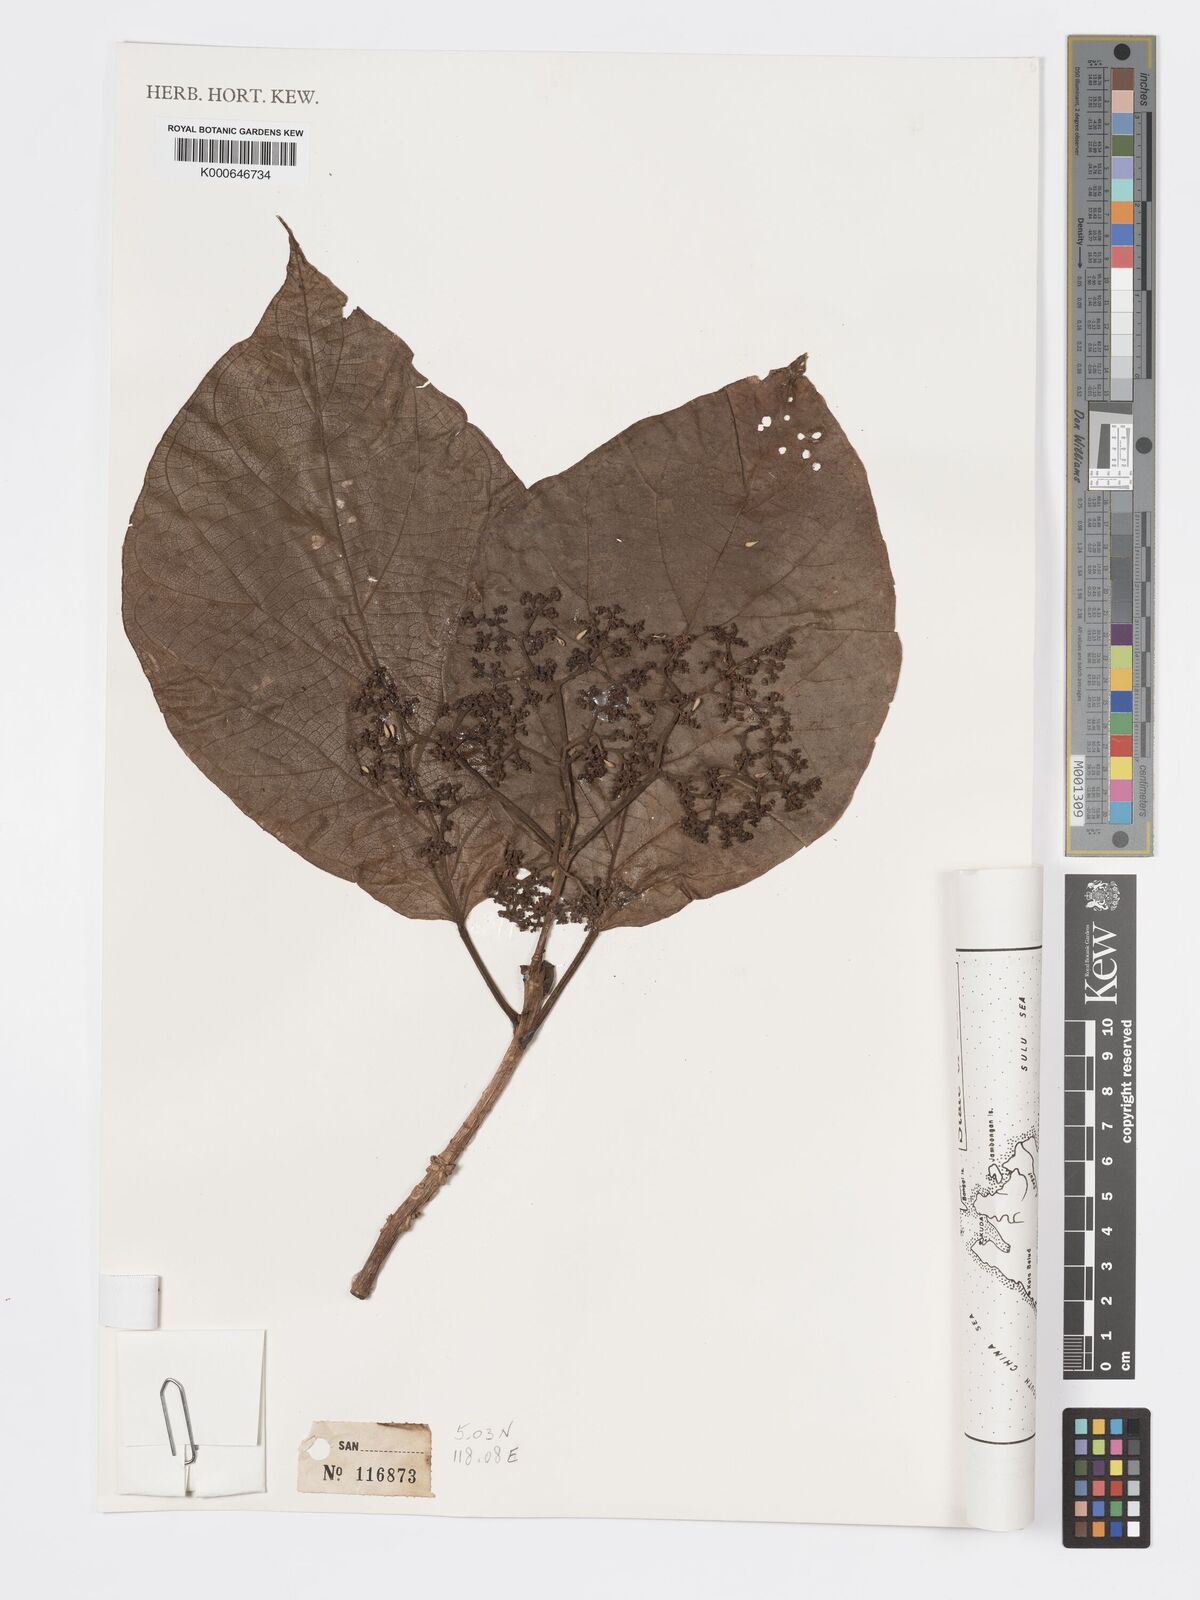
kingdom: Plantae
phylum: Tracheophyta
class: Magnoliopsida
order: Lamiales
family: Lamiaceae
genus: Premna
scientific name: Premna oblongata
